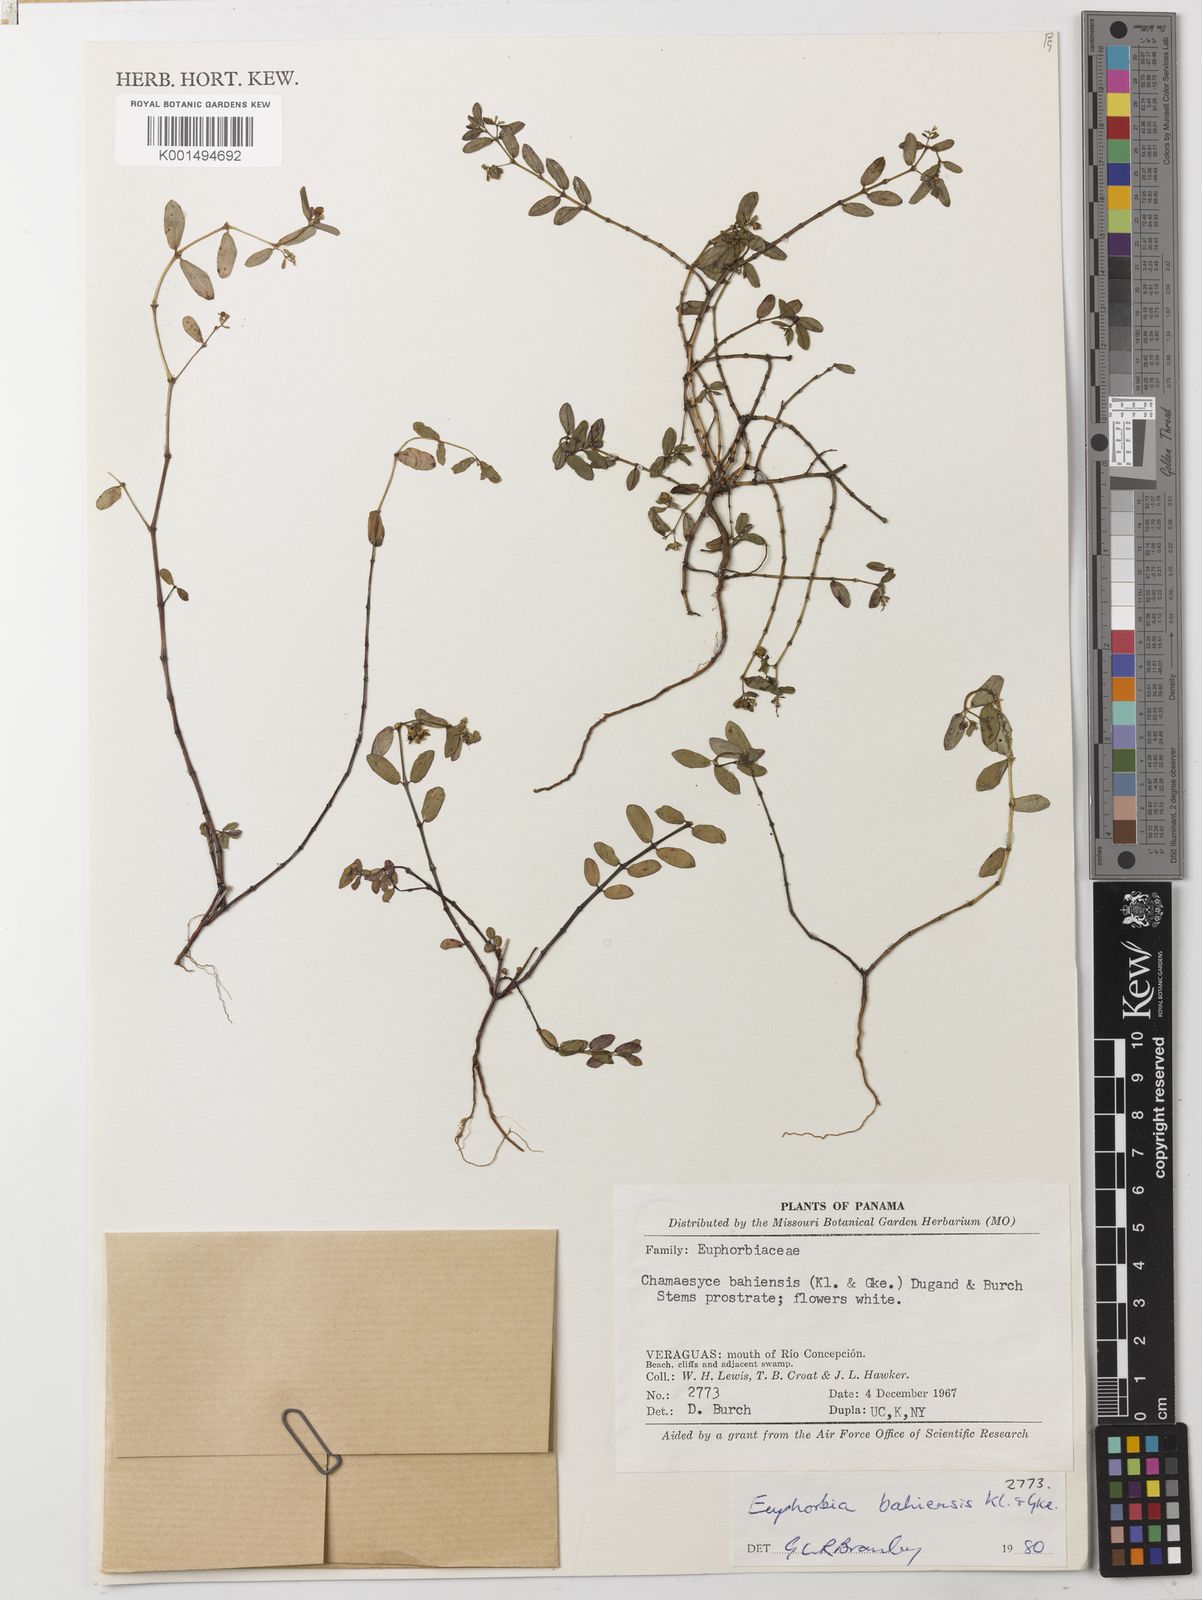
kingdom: Plantae
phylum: Tracheophyta
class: Magnoliopsida
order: Malpighiales
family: Euphorbiaceae
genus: Euphorbia
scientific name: Euphorbia bahiensis
